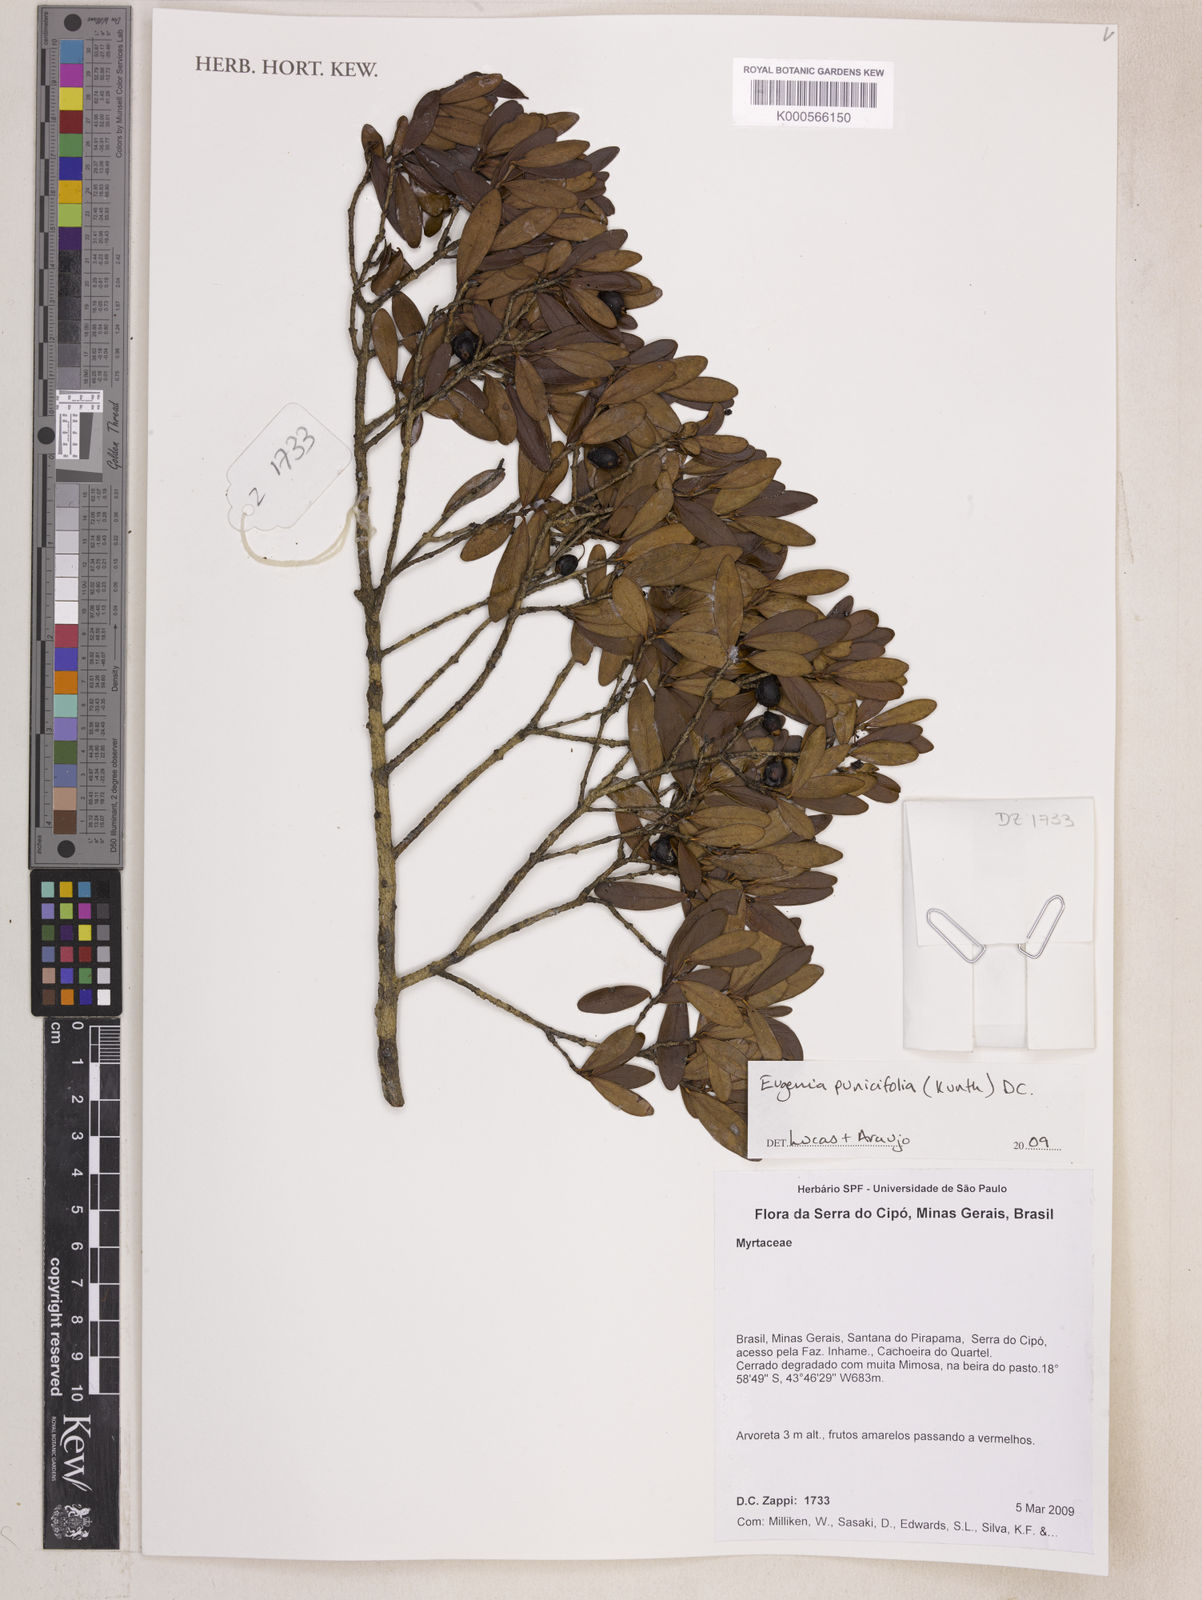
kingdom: Plantae
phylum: Tracheophyta
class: Magnoliopsida
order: Myrtales
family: Myrtaceae
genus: Eugenia
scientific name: Eugenia punicifolia
